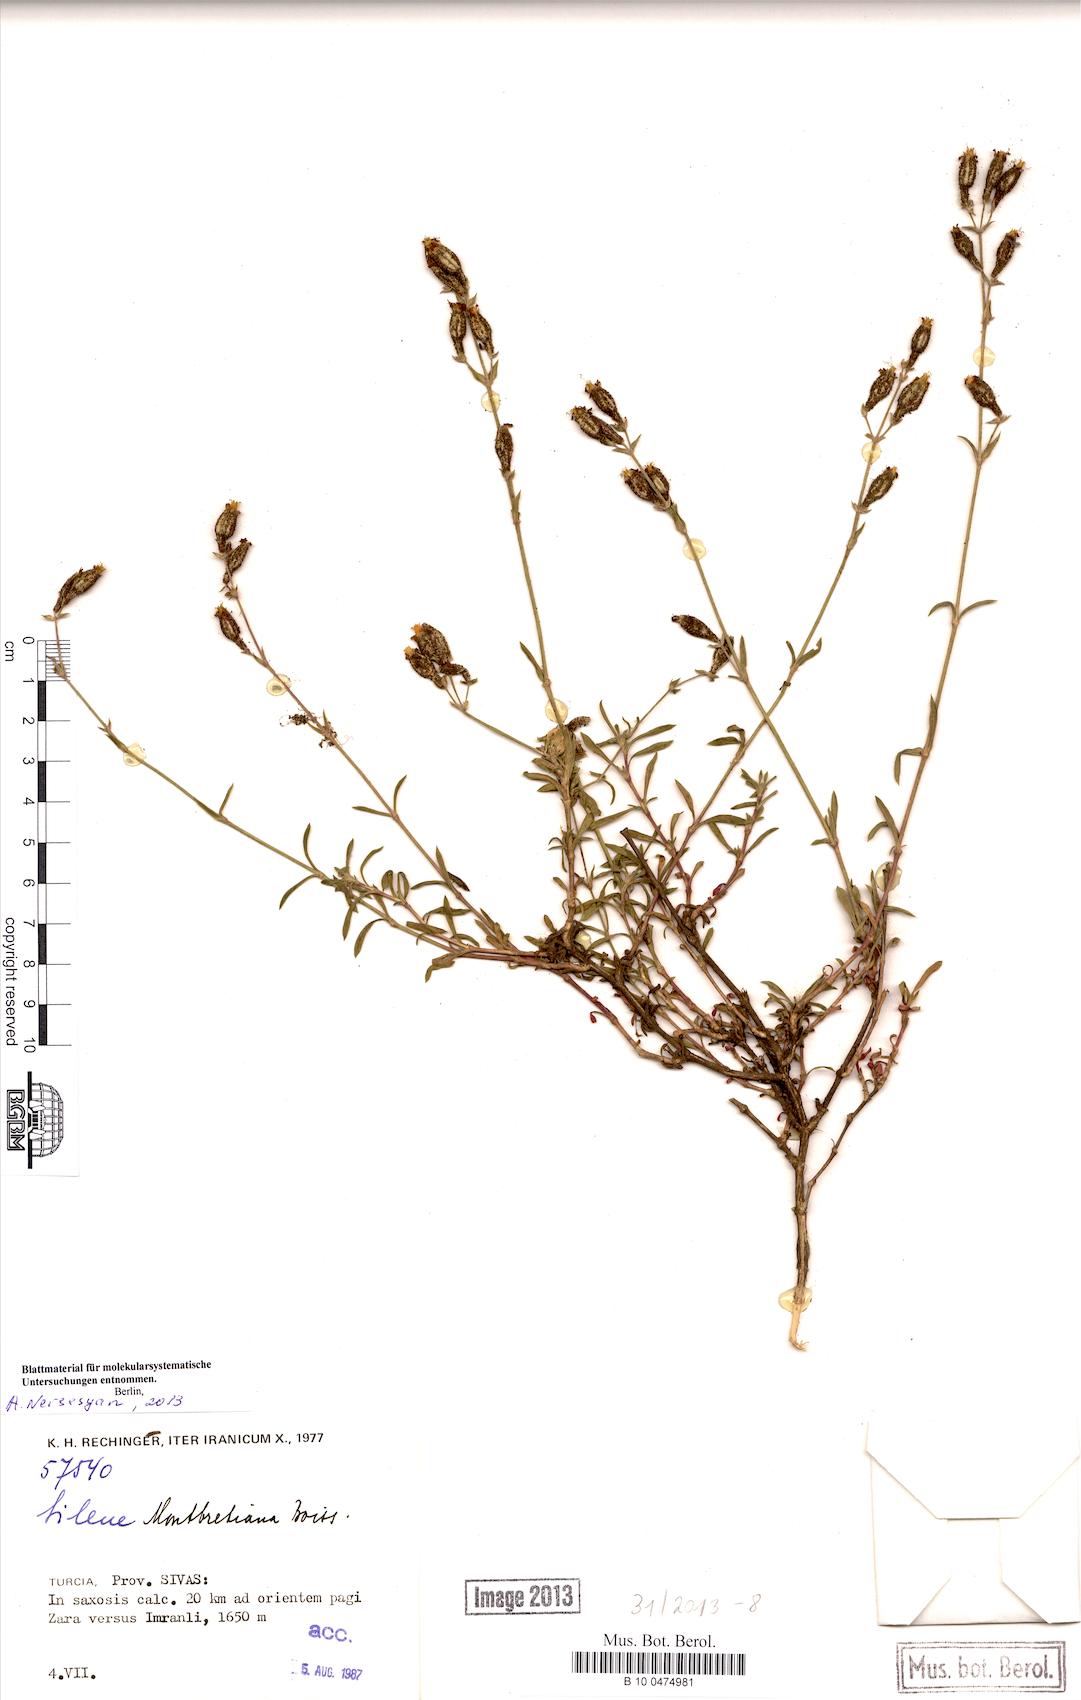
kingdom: Plantae
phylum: Tracheophyta
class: Magnoliopsida
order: Caryophyllales
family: Caryophyllaceae
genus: Silene
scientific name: Silene
